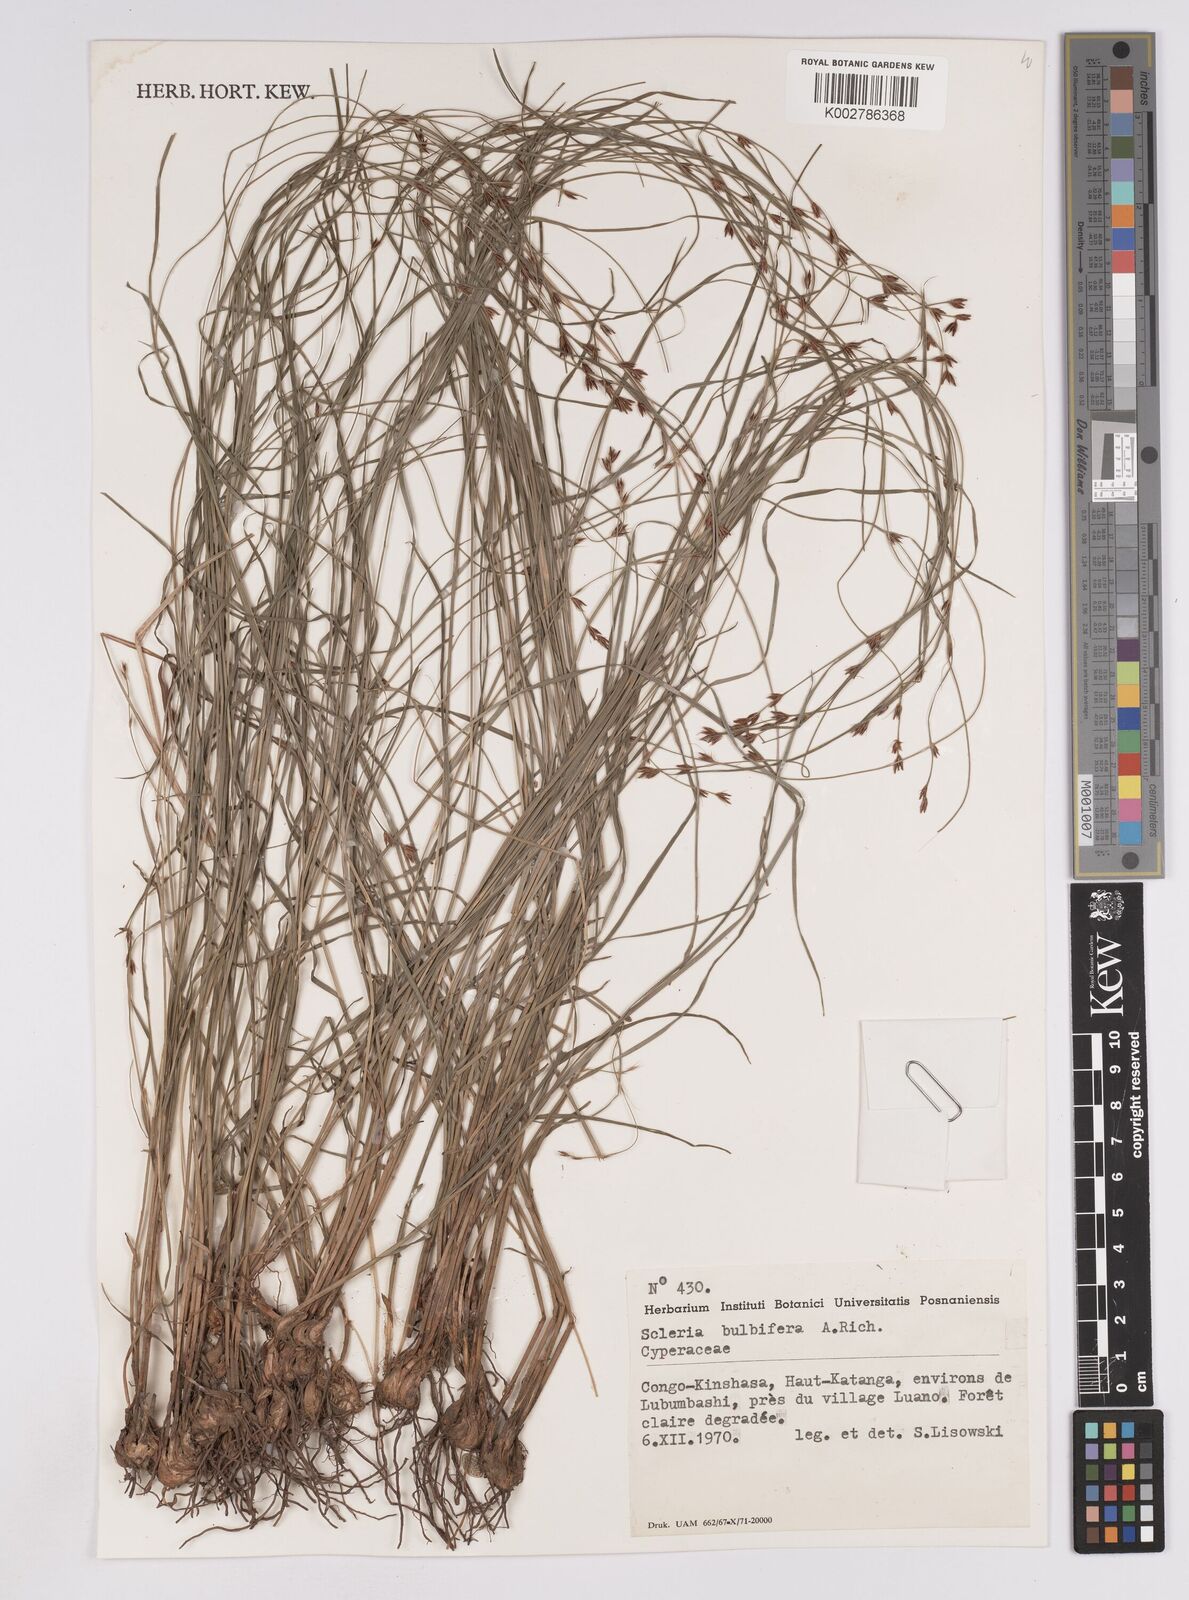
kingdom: Plantae
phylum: Tracheophyta
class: Liliopsida
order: Poales
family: Cyperaceae
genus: Scleria
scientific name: Scleria bulbifera
